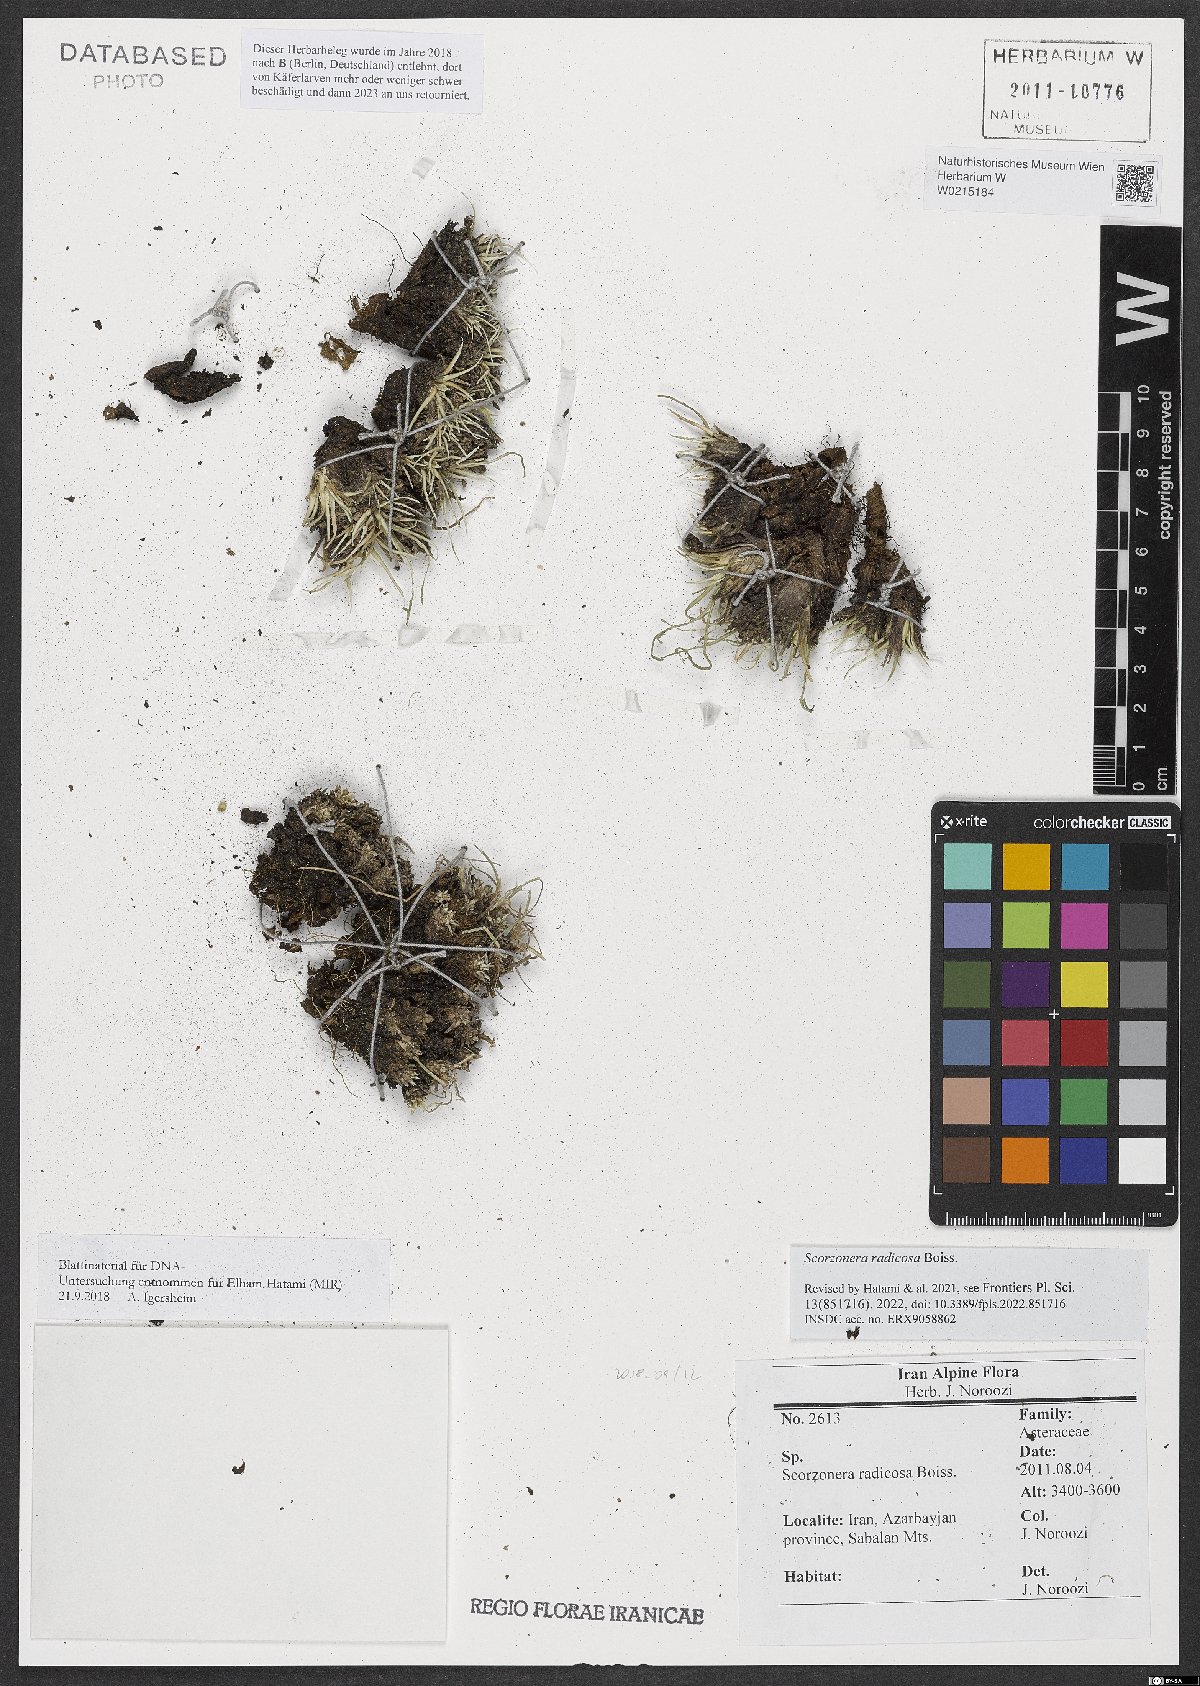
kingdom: Plantae
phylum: Tracheophyta
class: Magnoliopsida
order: Asterales
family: Asteraceae
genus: Scorzonera
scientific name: Scorzonera radicosa
